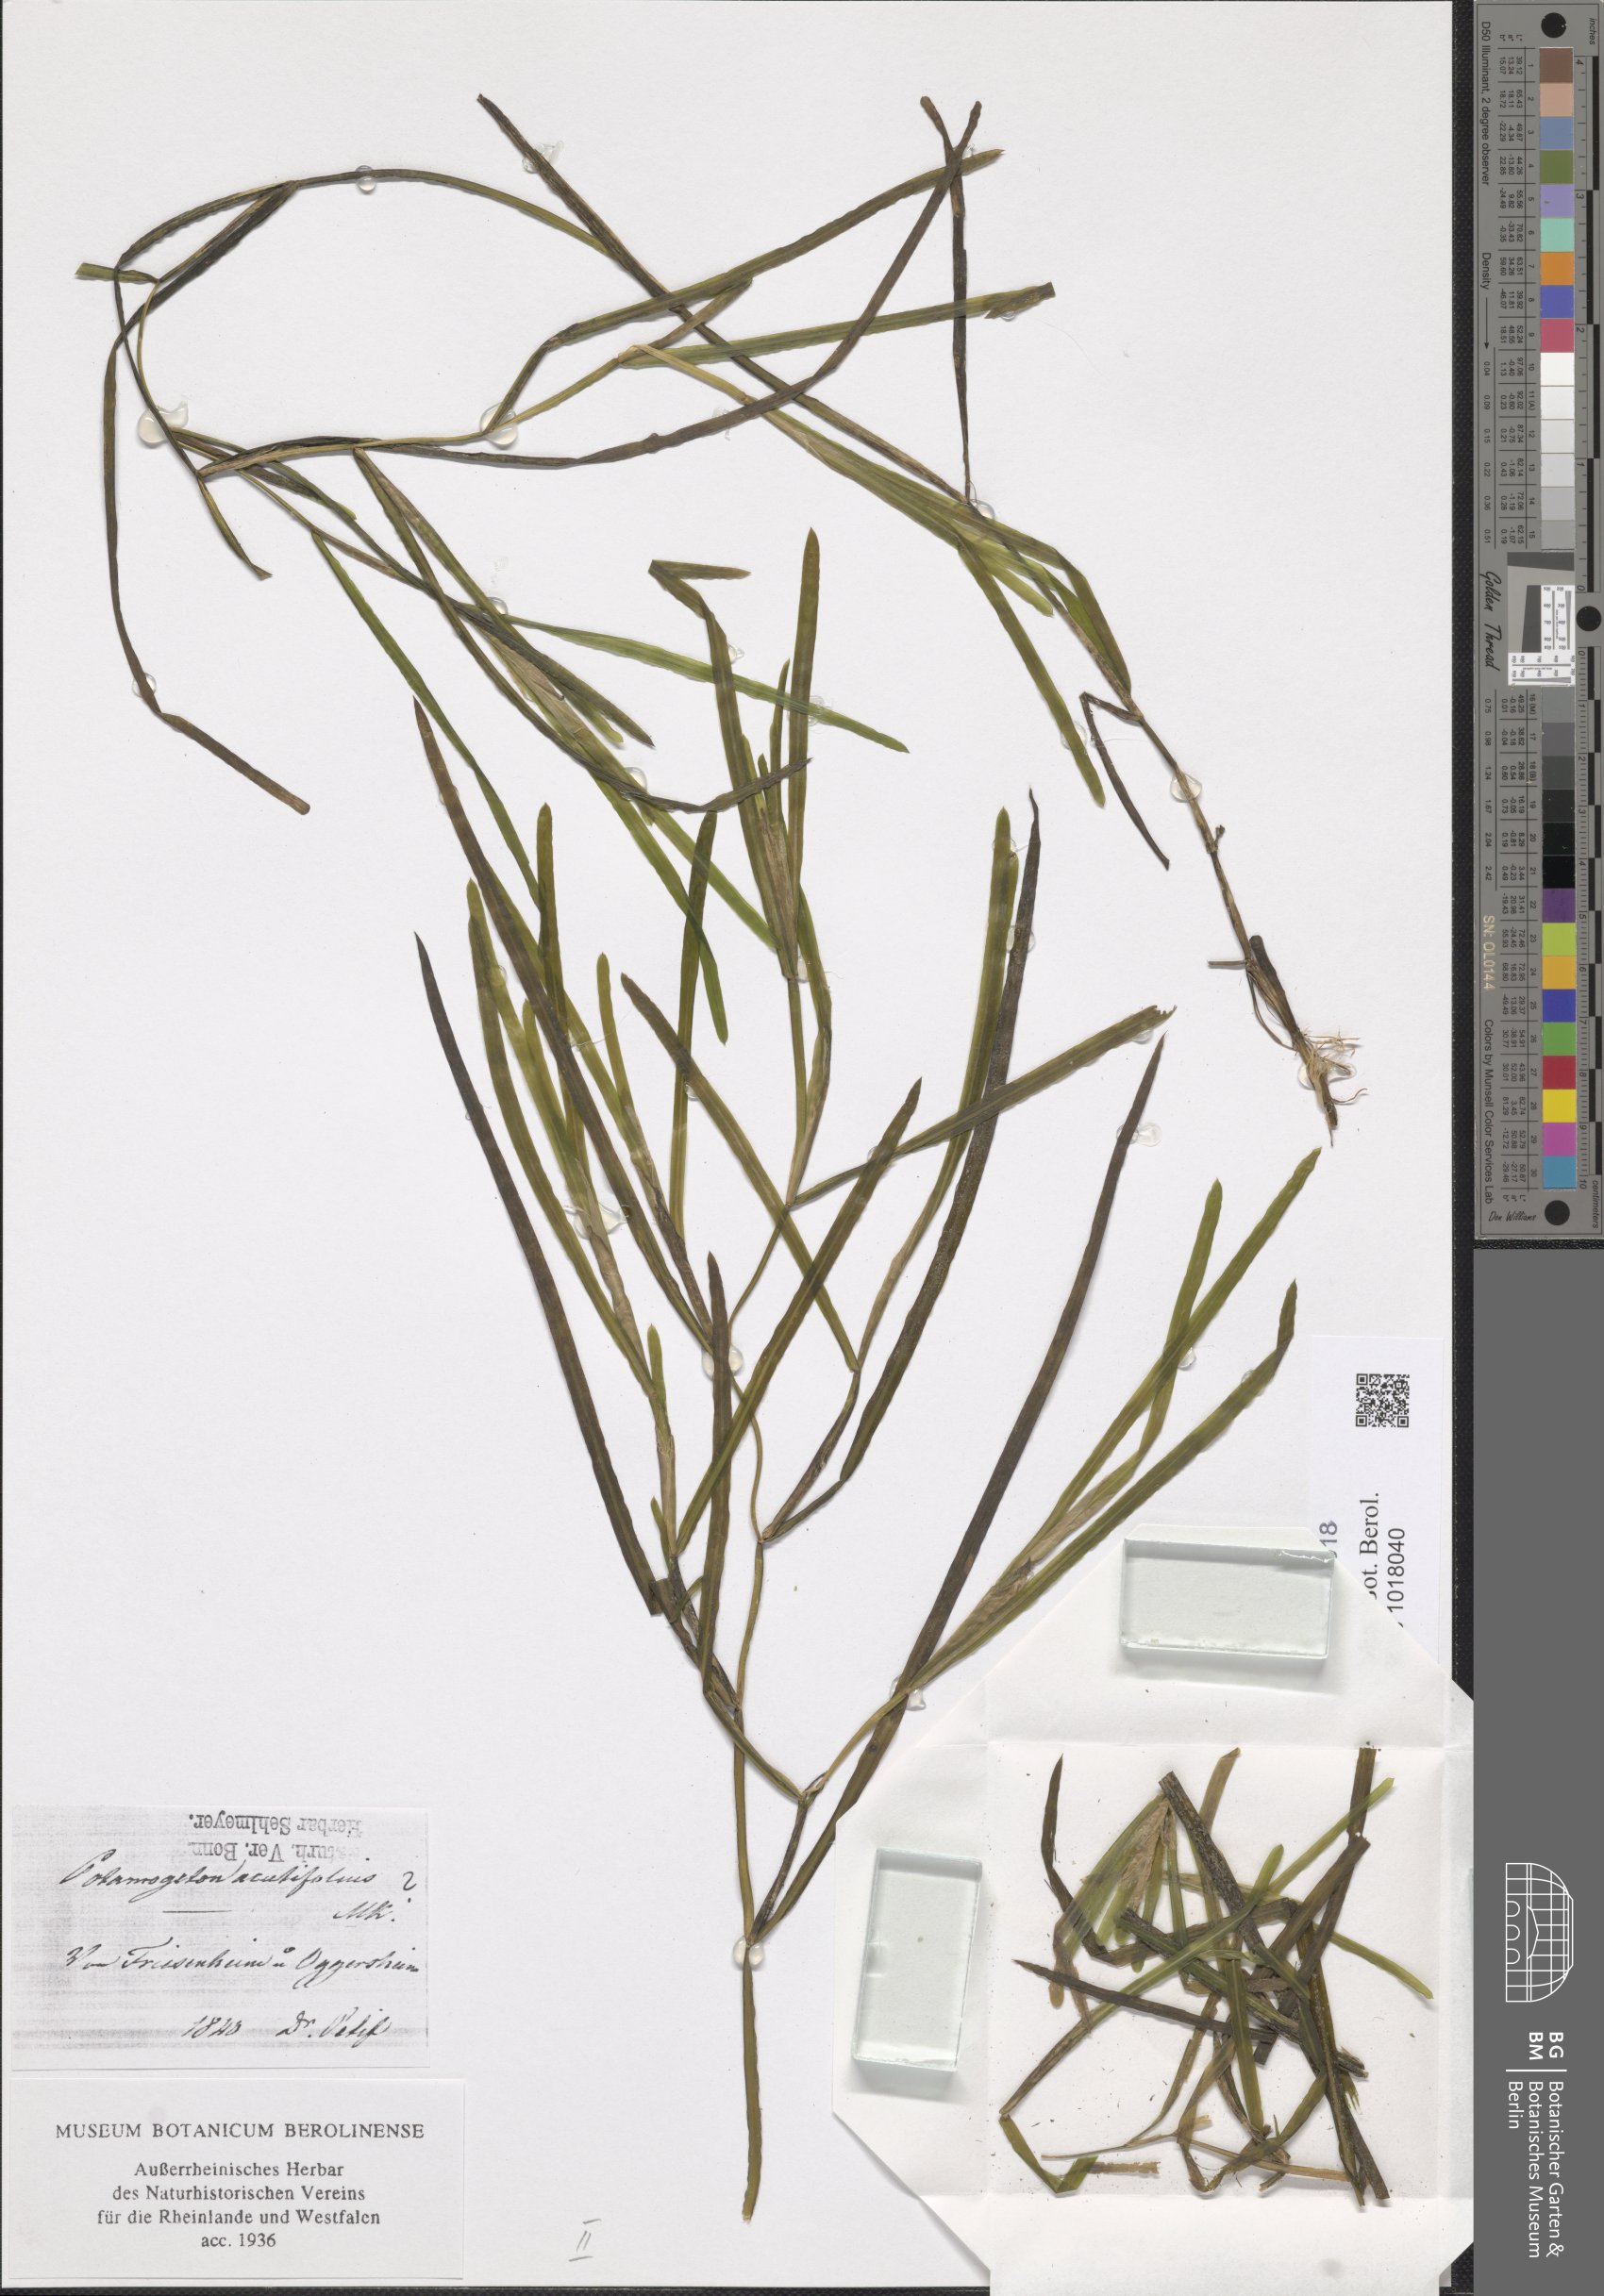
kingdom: Plantae
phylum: Tracheophyta
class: Liliopsida
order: Alismatales
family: Potamogetonaceae
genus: Potamogeton
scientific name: Potamogeton compressus
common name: Grass-wrack pondweed
